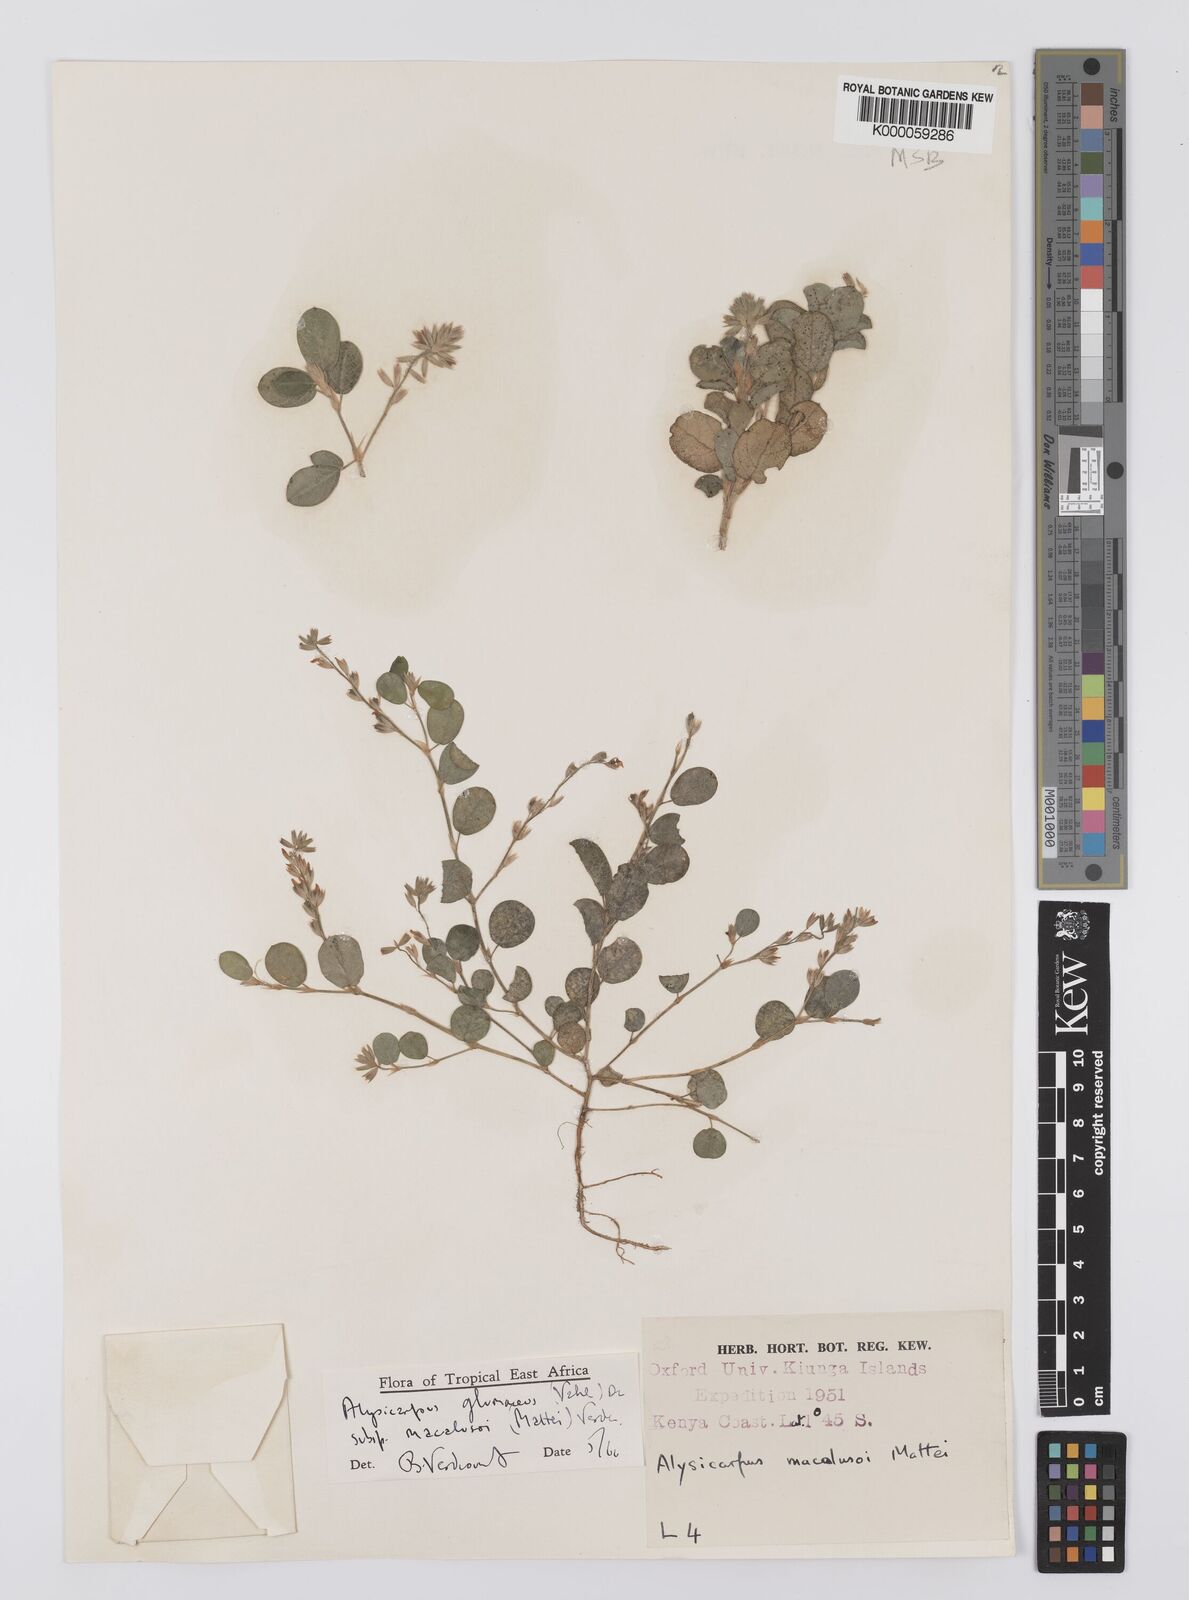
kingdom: Plantae
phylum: Tracheophyta
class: Magnoliopsida
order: Fabales
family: Fabaceae
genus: Alysicarpus
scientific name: Alysicarpus glumaceus
